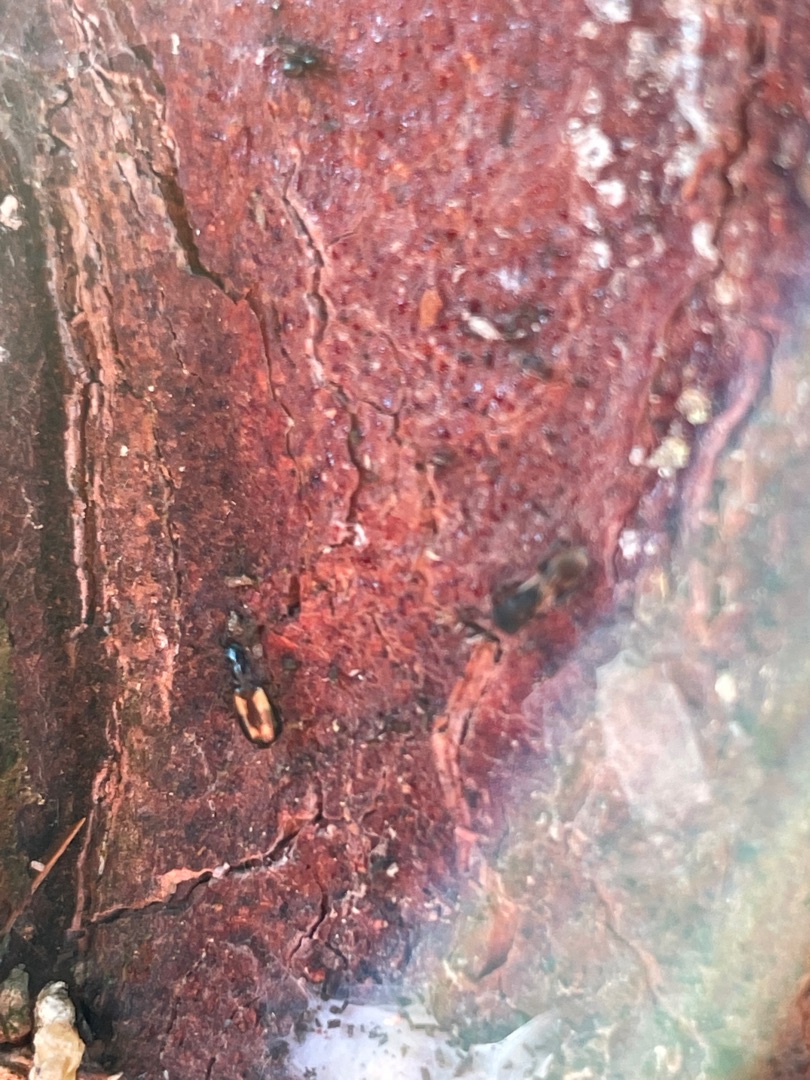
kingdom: Animalia
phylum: Arthropoda
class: Insecta
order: Coleoptera
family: Carabidae
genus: Dromius
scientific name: Dromius quadrimaculatus
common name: Fireplettet barkløber
